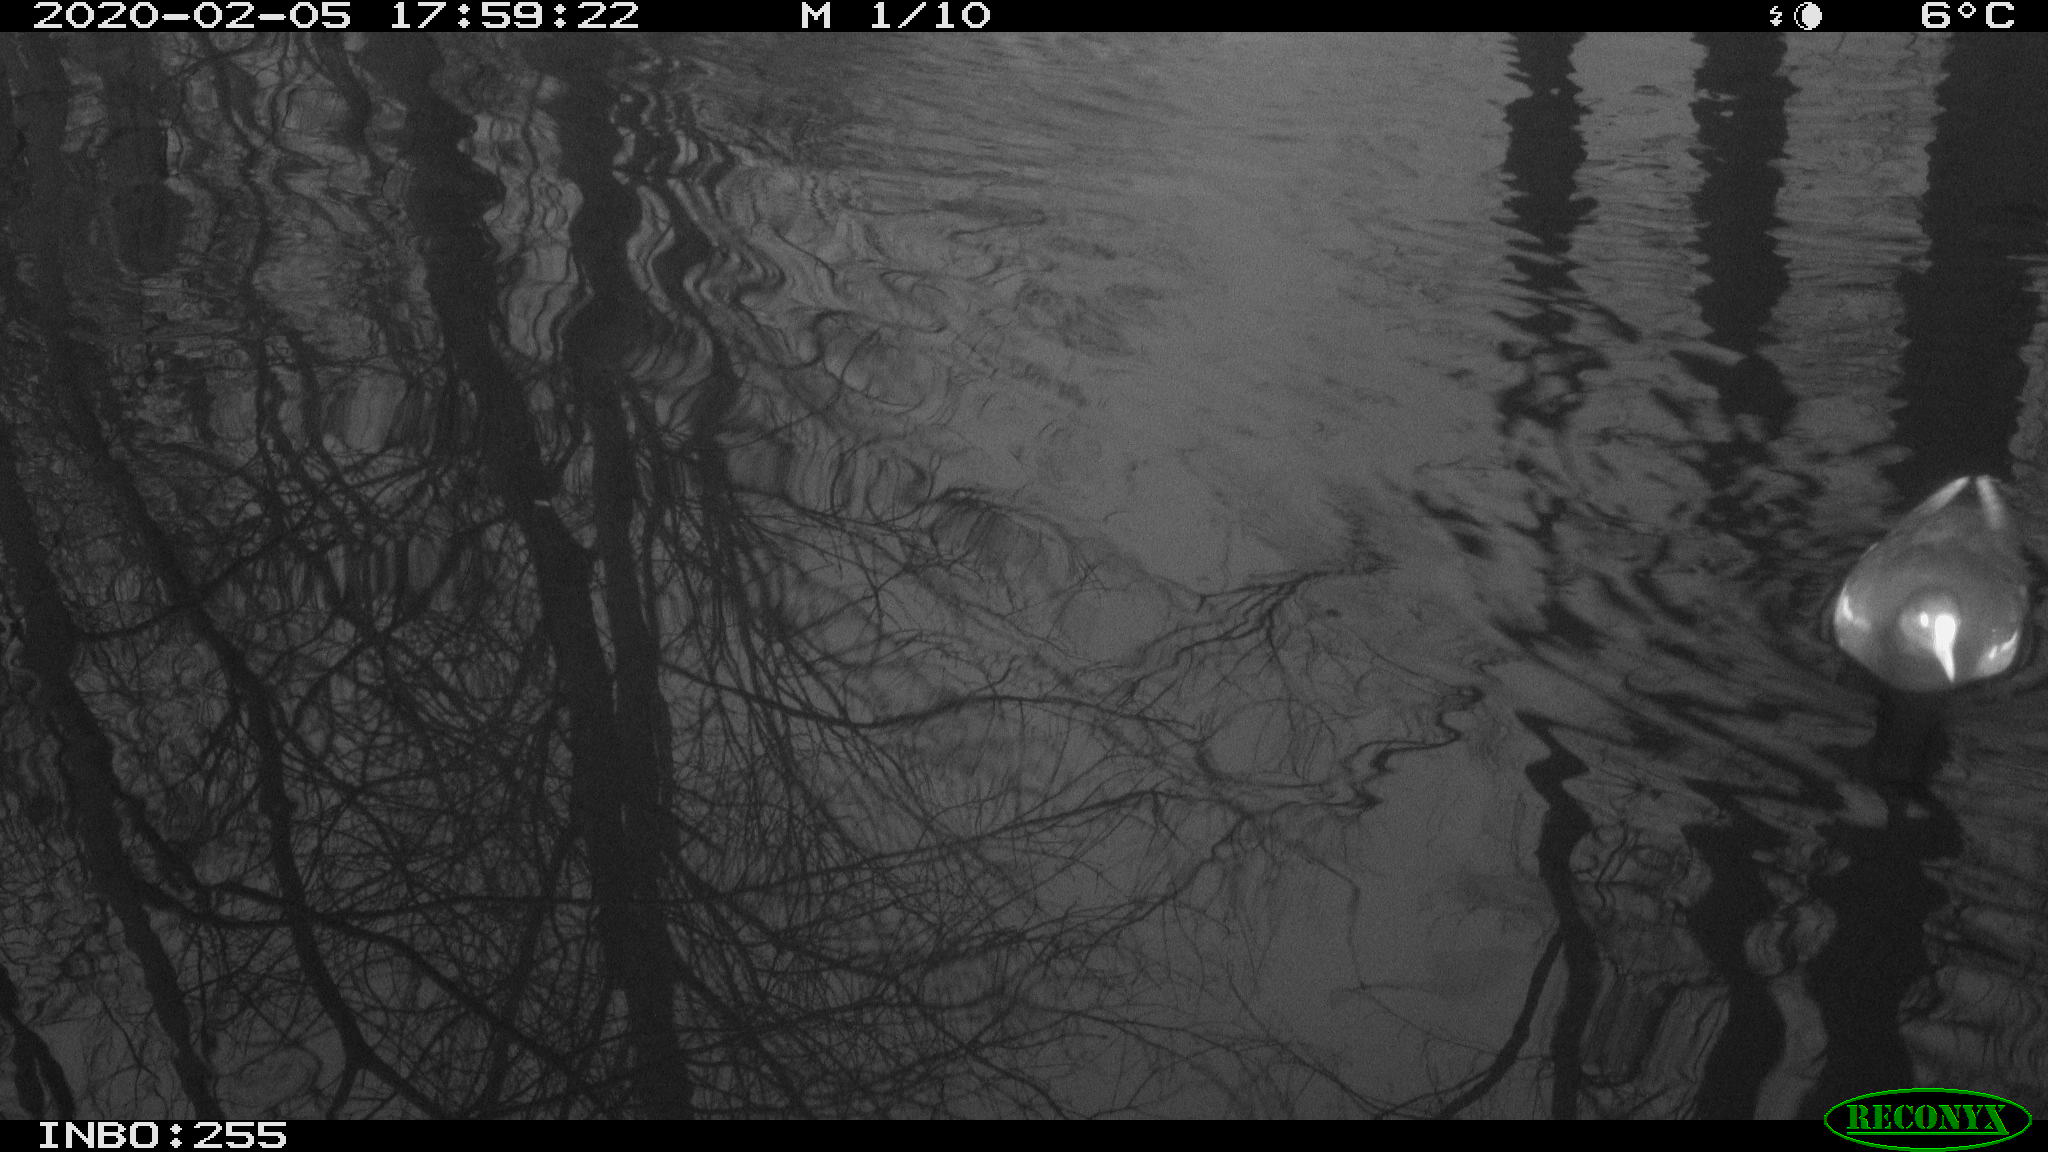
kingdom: Animalia
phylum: Chordata
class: Aves
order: Gruiformes
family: Rallidae
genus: Gallinula
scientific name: Gallinula chloropus
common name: Common moorhen
